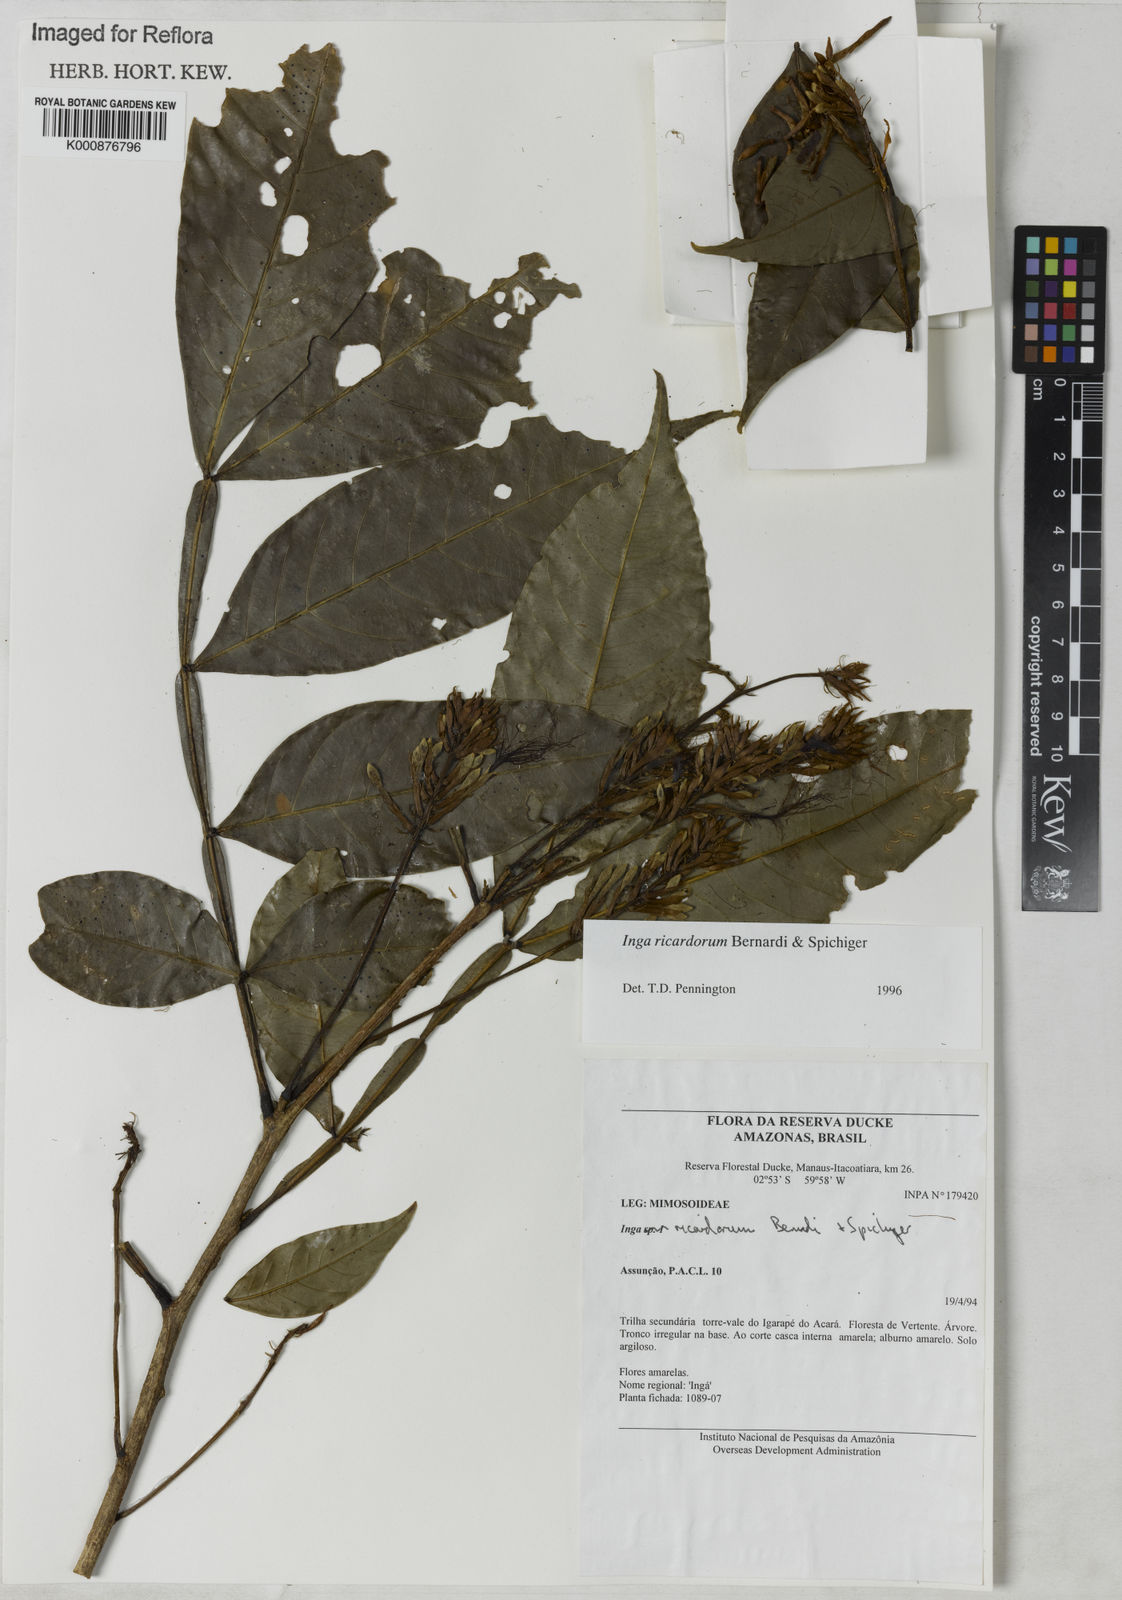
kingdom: Plantae
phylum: Tracheophyta
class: Magnoliopsida
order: Fabales
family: Fabaceae
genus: Inga
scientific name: Inga chrysantha
